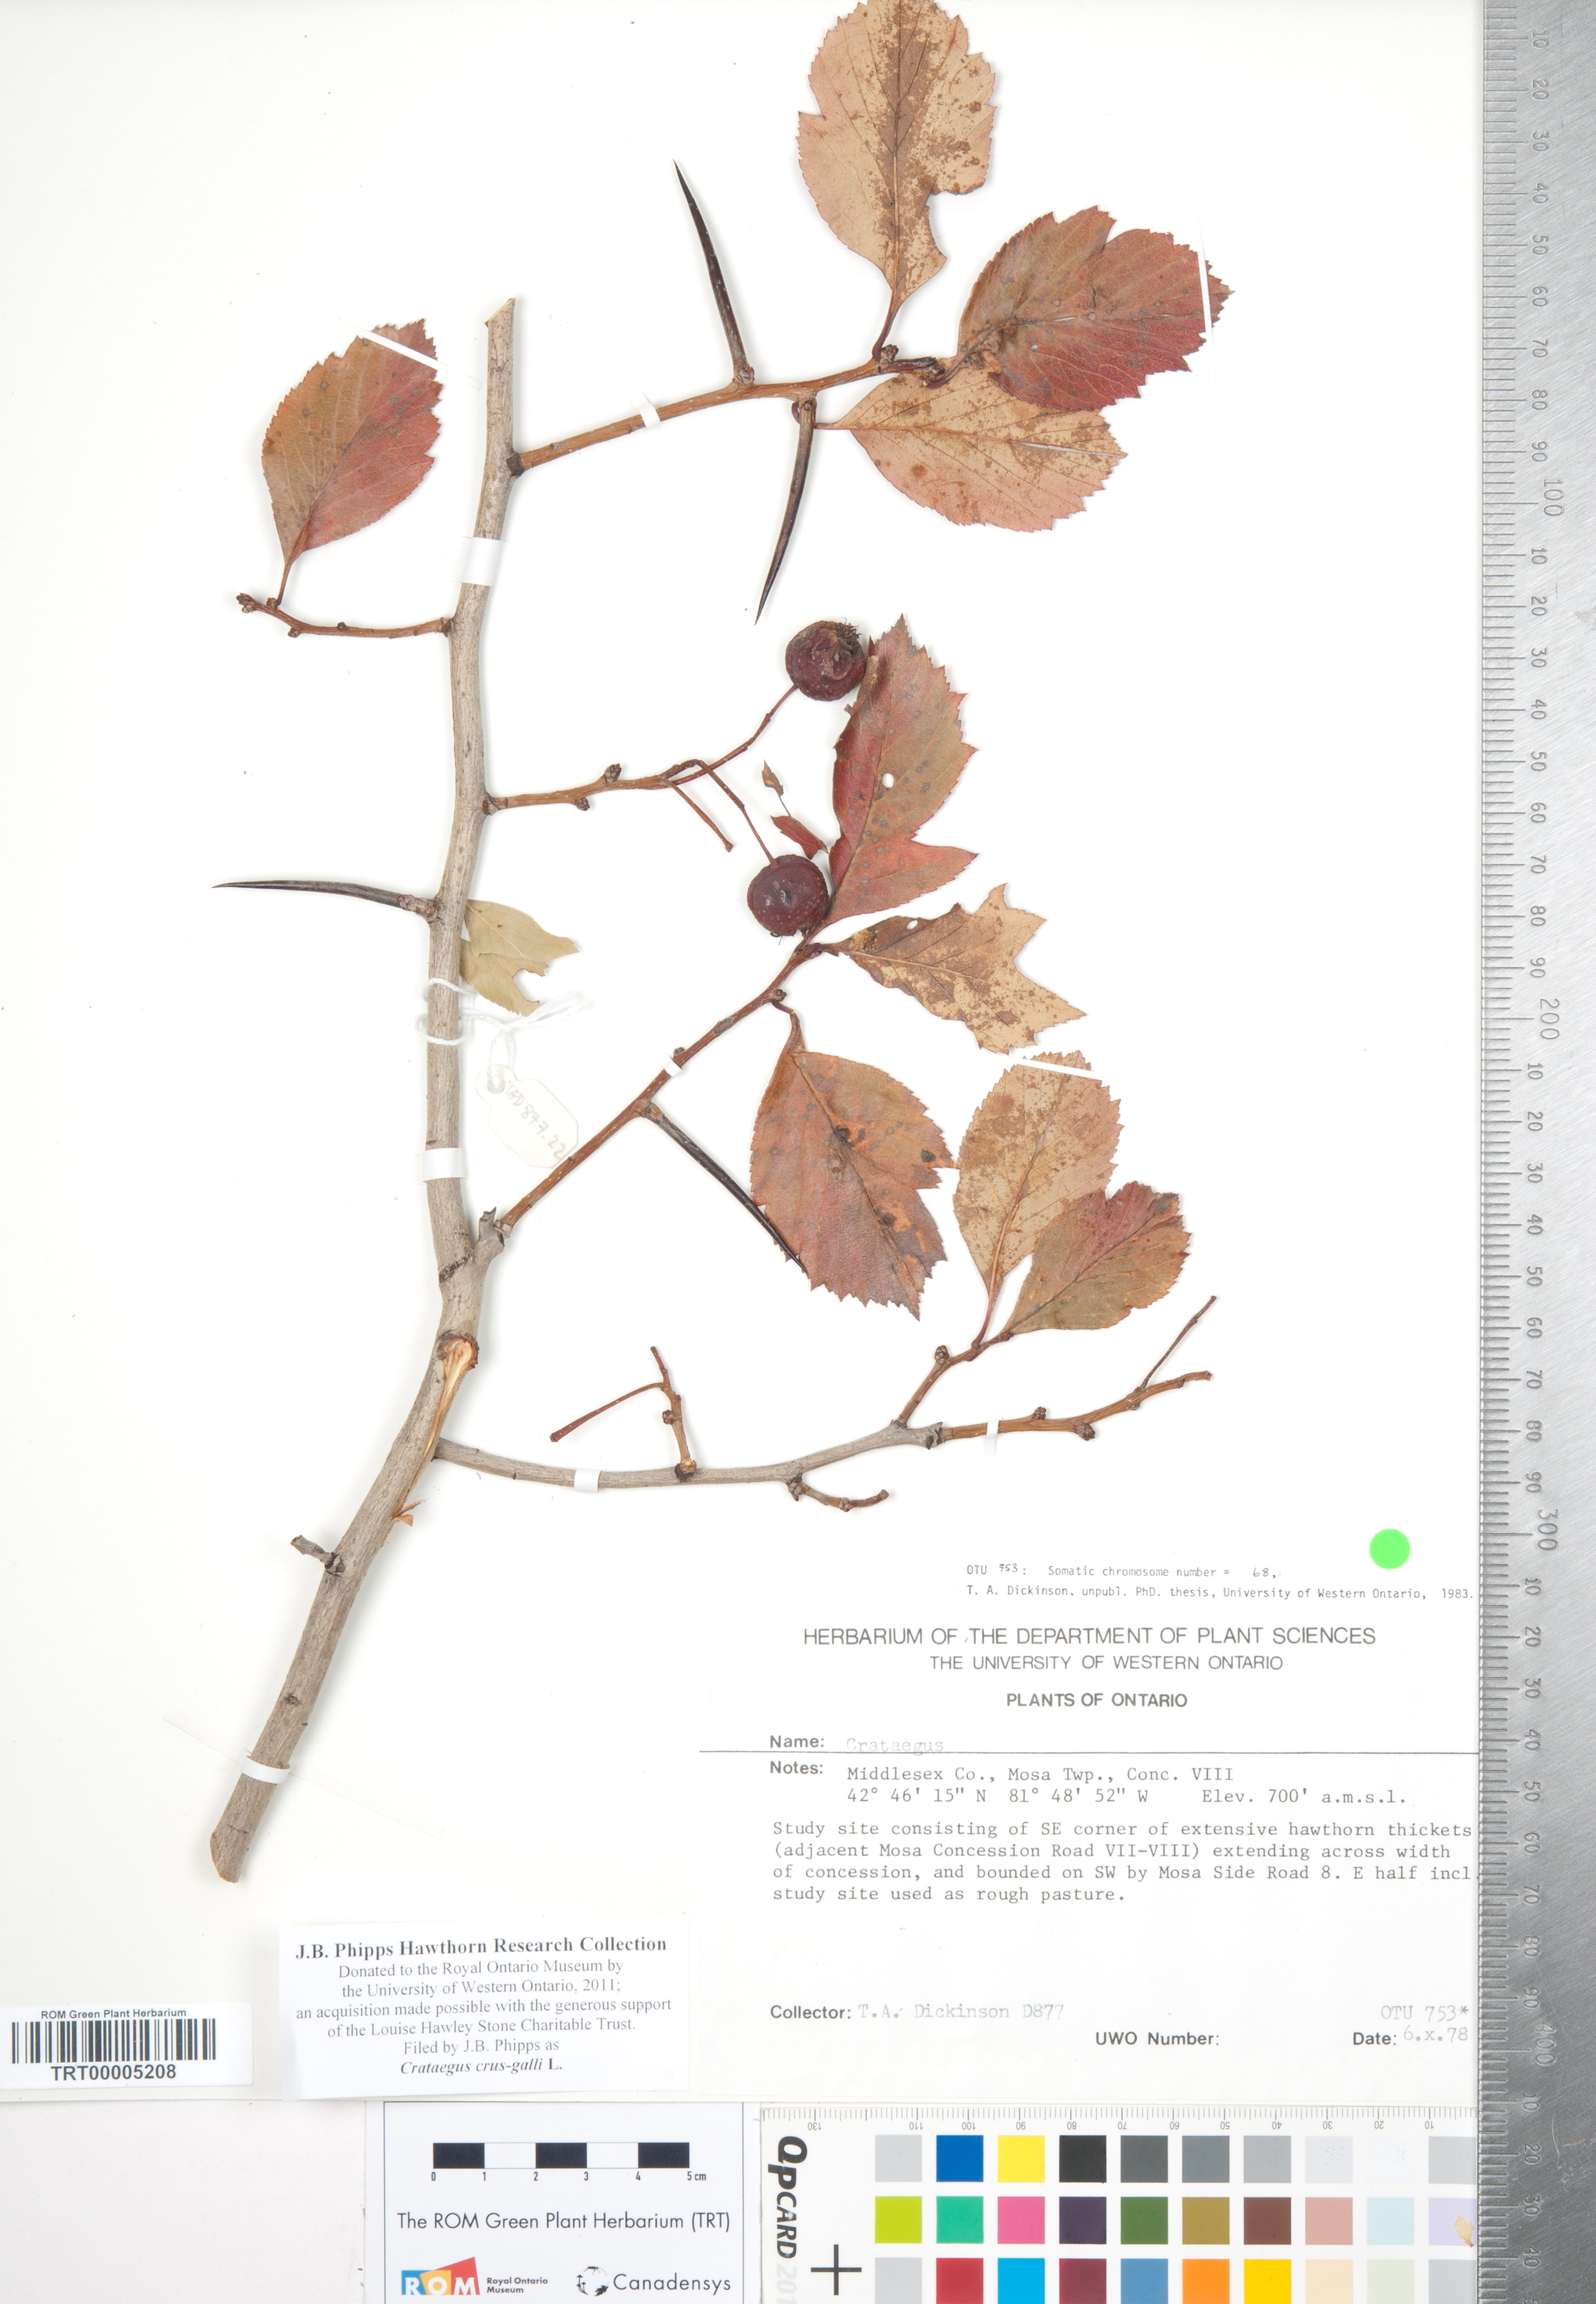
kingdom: Plantae
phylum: Tracheophyta
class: Magnoliopsida
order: Rosales
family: Rosaceae
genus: Crataegus
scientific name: Crataegus crus-galli
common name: Cockspurthorn
